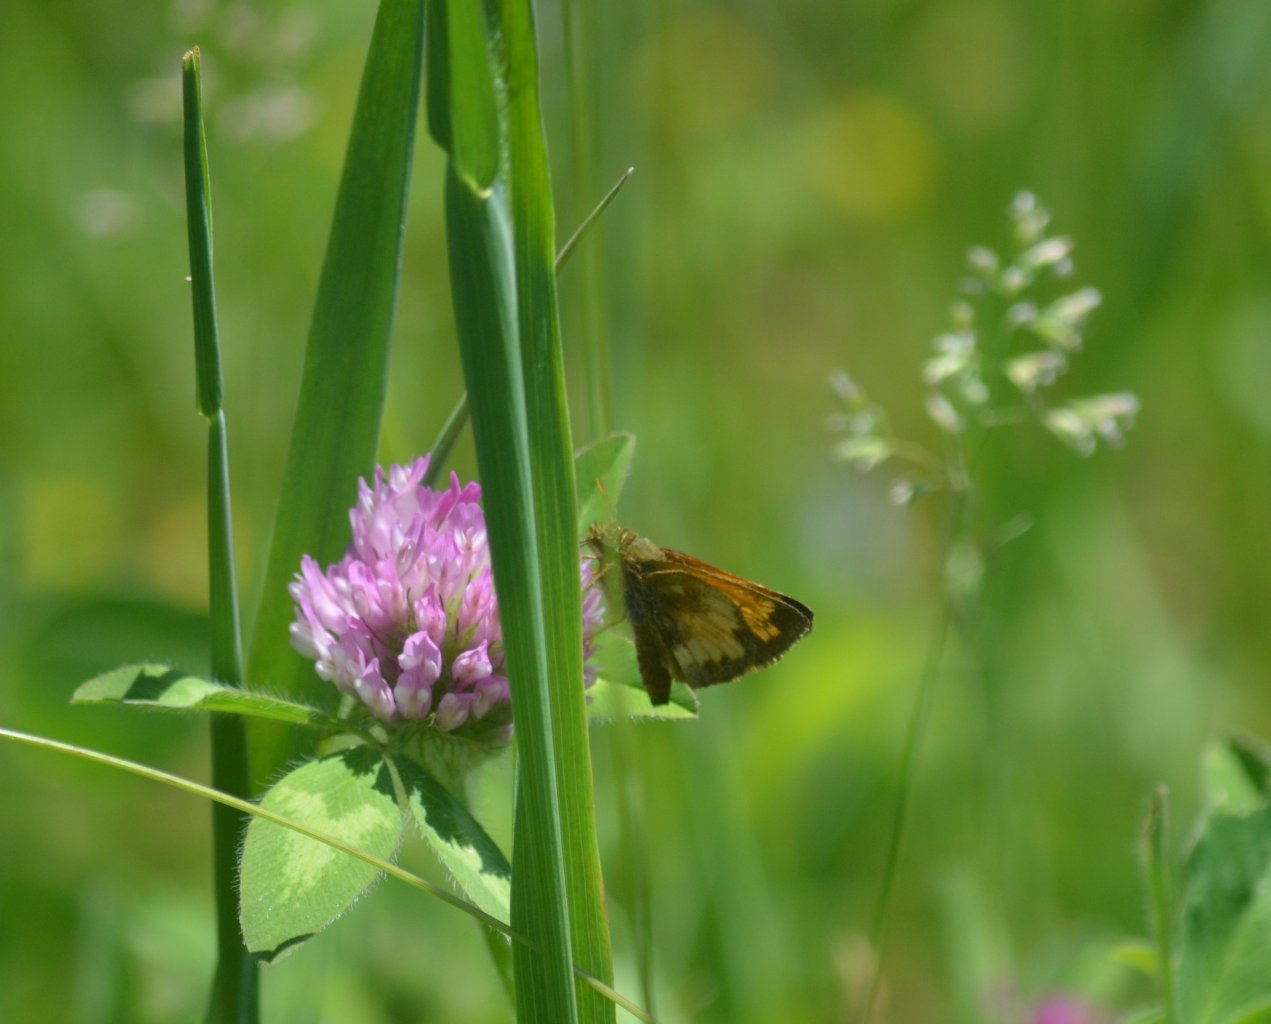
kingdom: Animalia
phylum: Arthropoda
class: Insecta
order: Lepidoptera
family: Hesperiidae
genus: Lon
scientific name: Lon hobomok
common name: Hobomok Skipper
